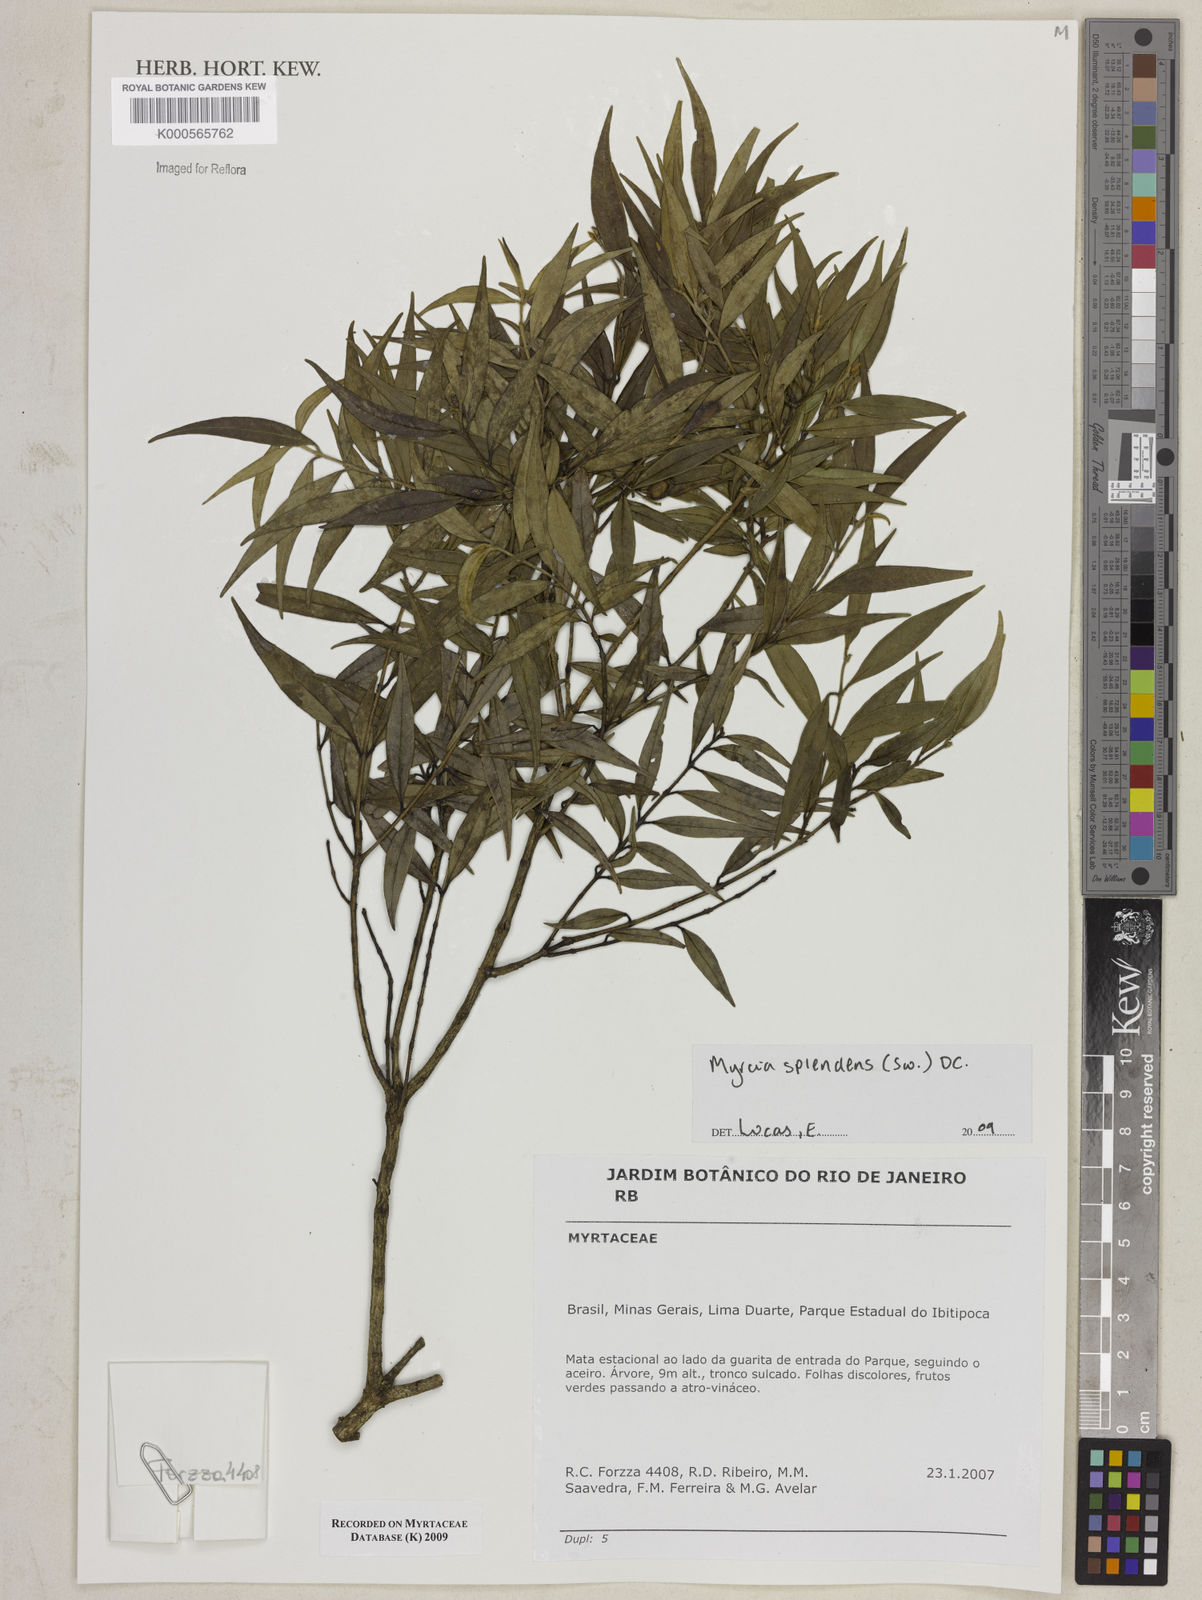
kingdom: Plantae
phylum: Tracheophyta
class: Magnoliopsida
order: Myrtales
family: Myrtaceae
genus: Myrcia
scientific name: Myrcia splendens
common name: Surinam cherry
